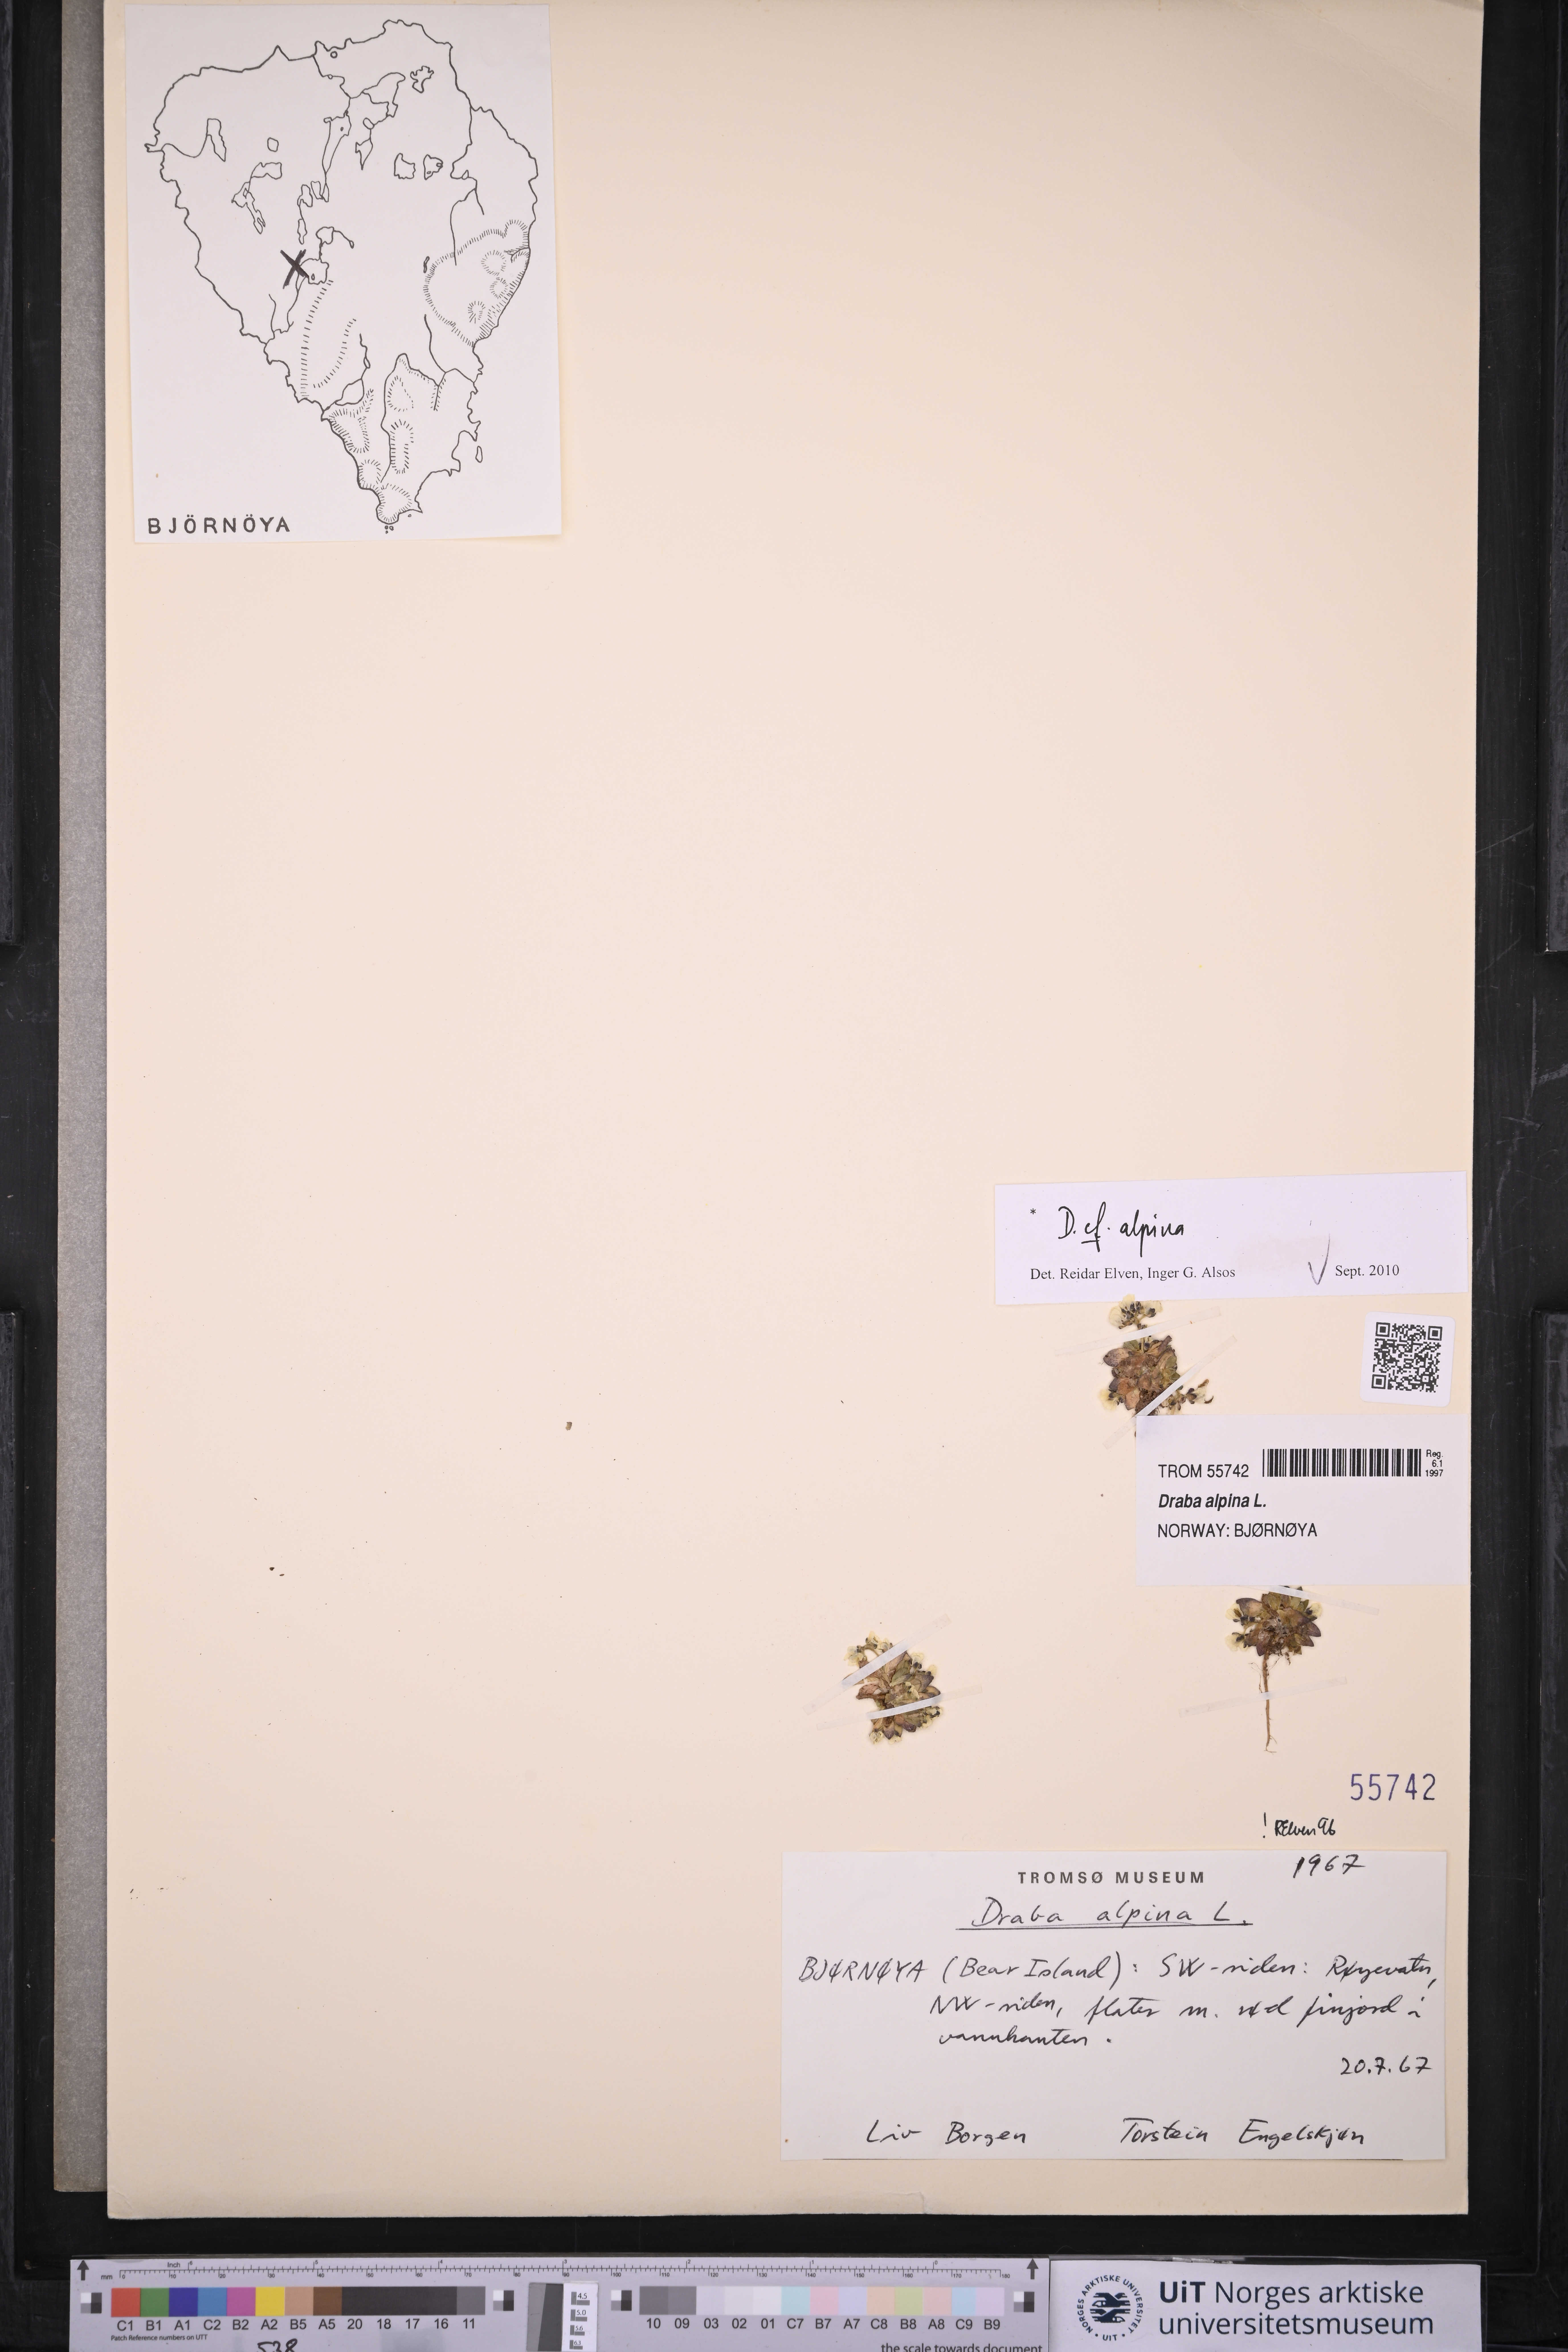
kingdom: Plantae
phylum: Tracheophyta
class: Magnoliopsida
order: Brassicales
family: Brassicaceae
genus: Draba
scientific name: Draba alpina
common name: Alpine draba
